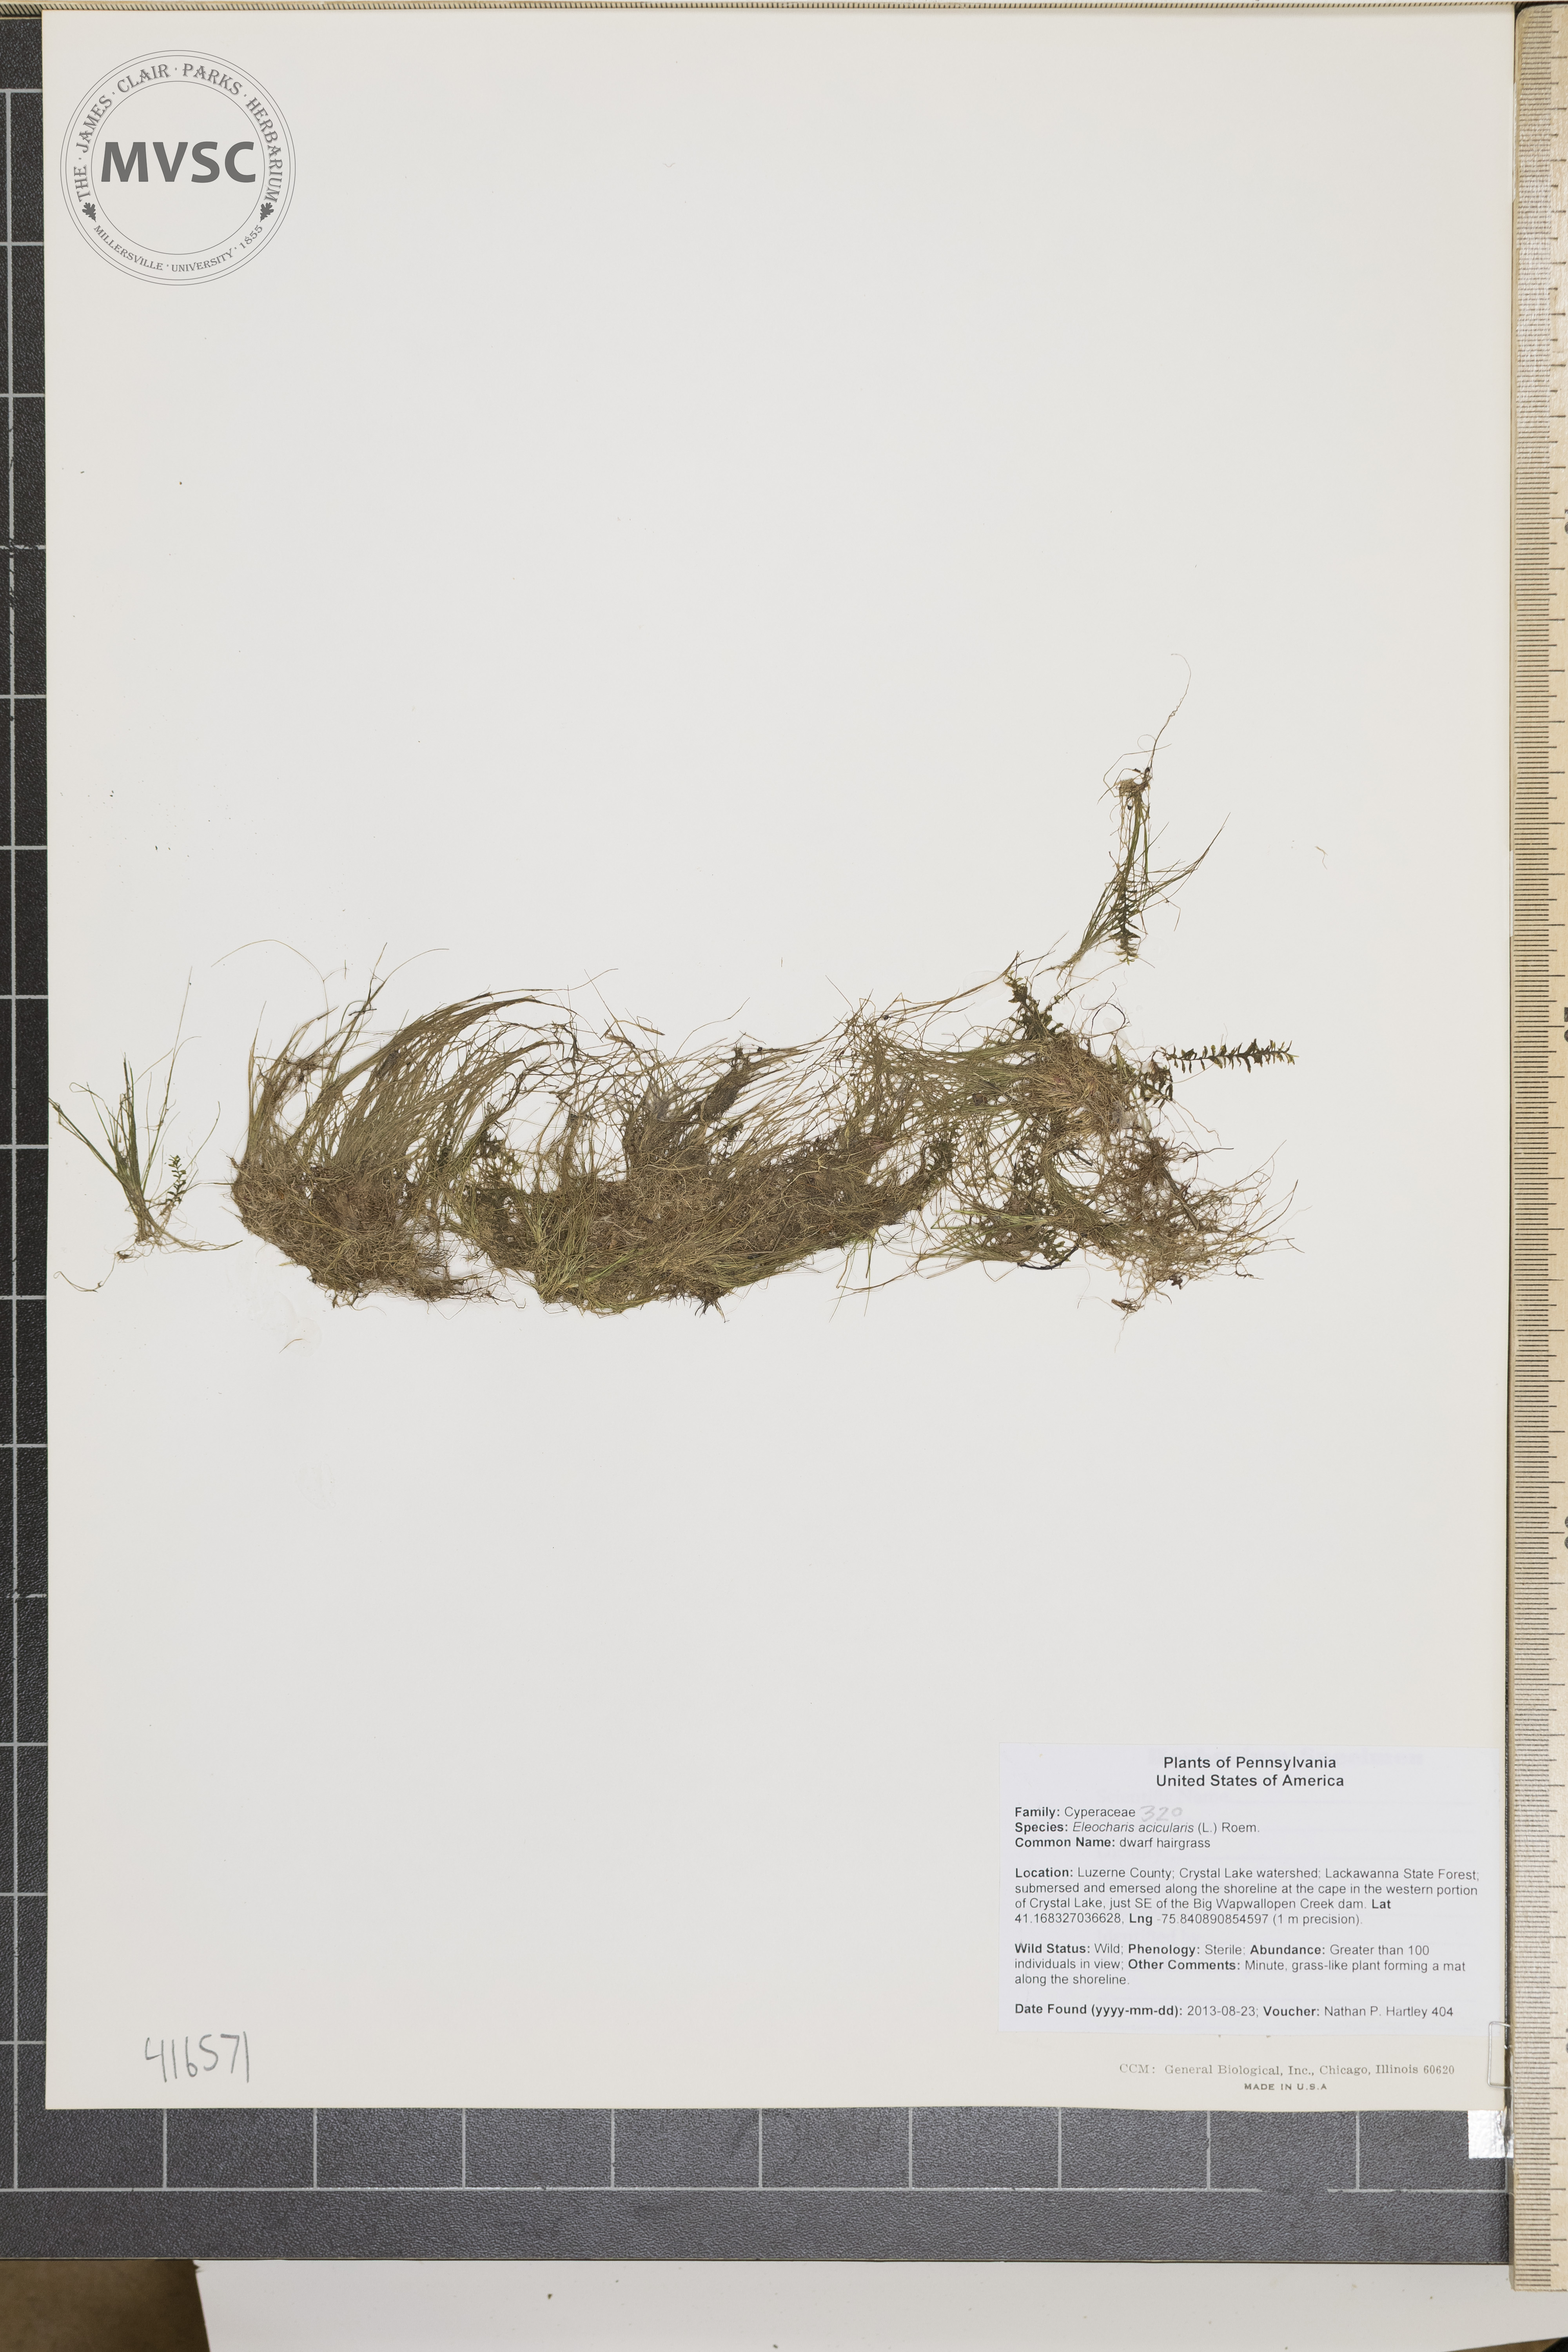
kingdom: Plantae
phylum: Tracheophyta
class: Liliopsida
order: Poales
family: Cyperaceae
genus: Eleocharis
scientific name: Eleocharis acicularis
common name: dwarf hairgrass
